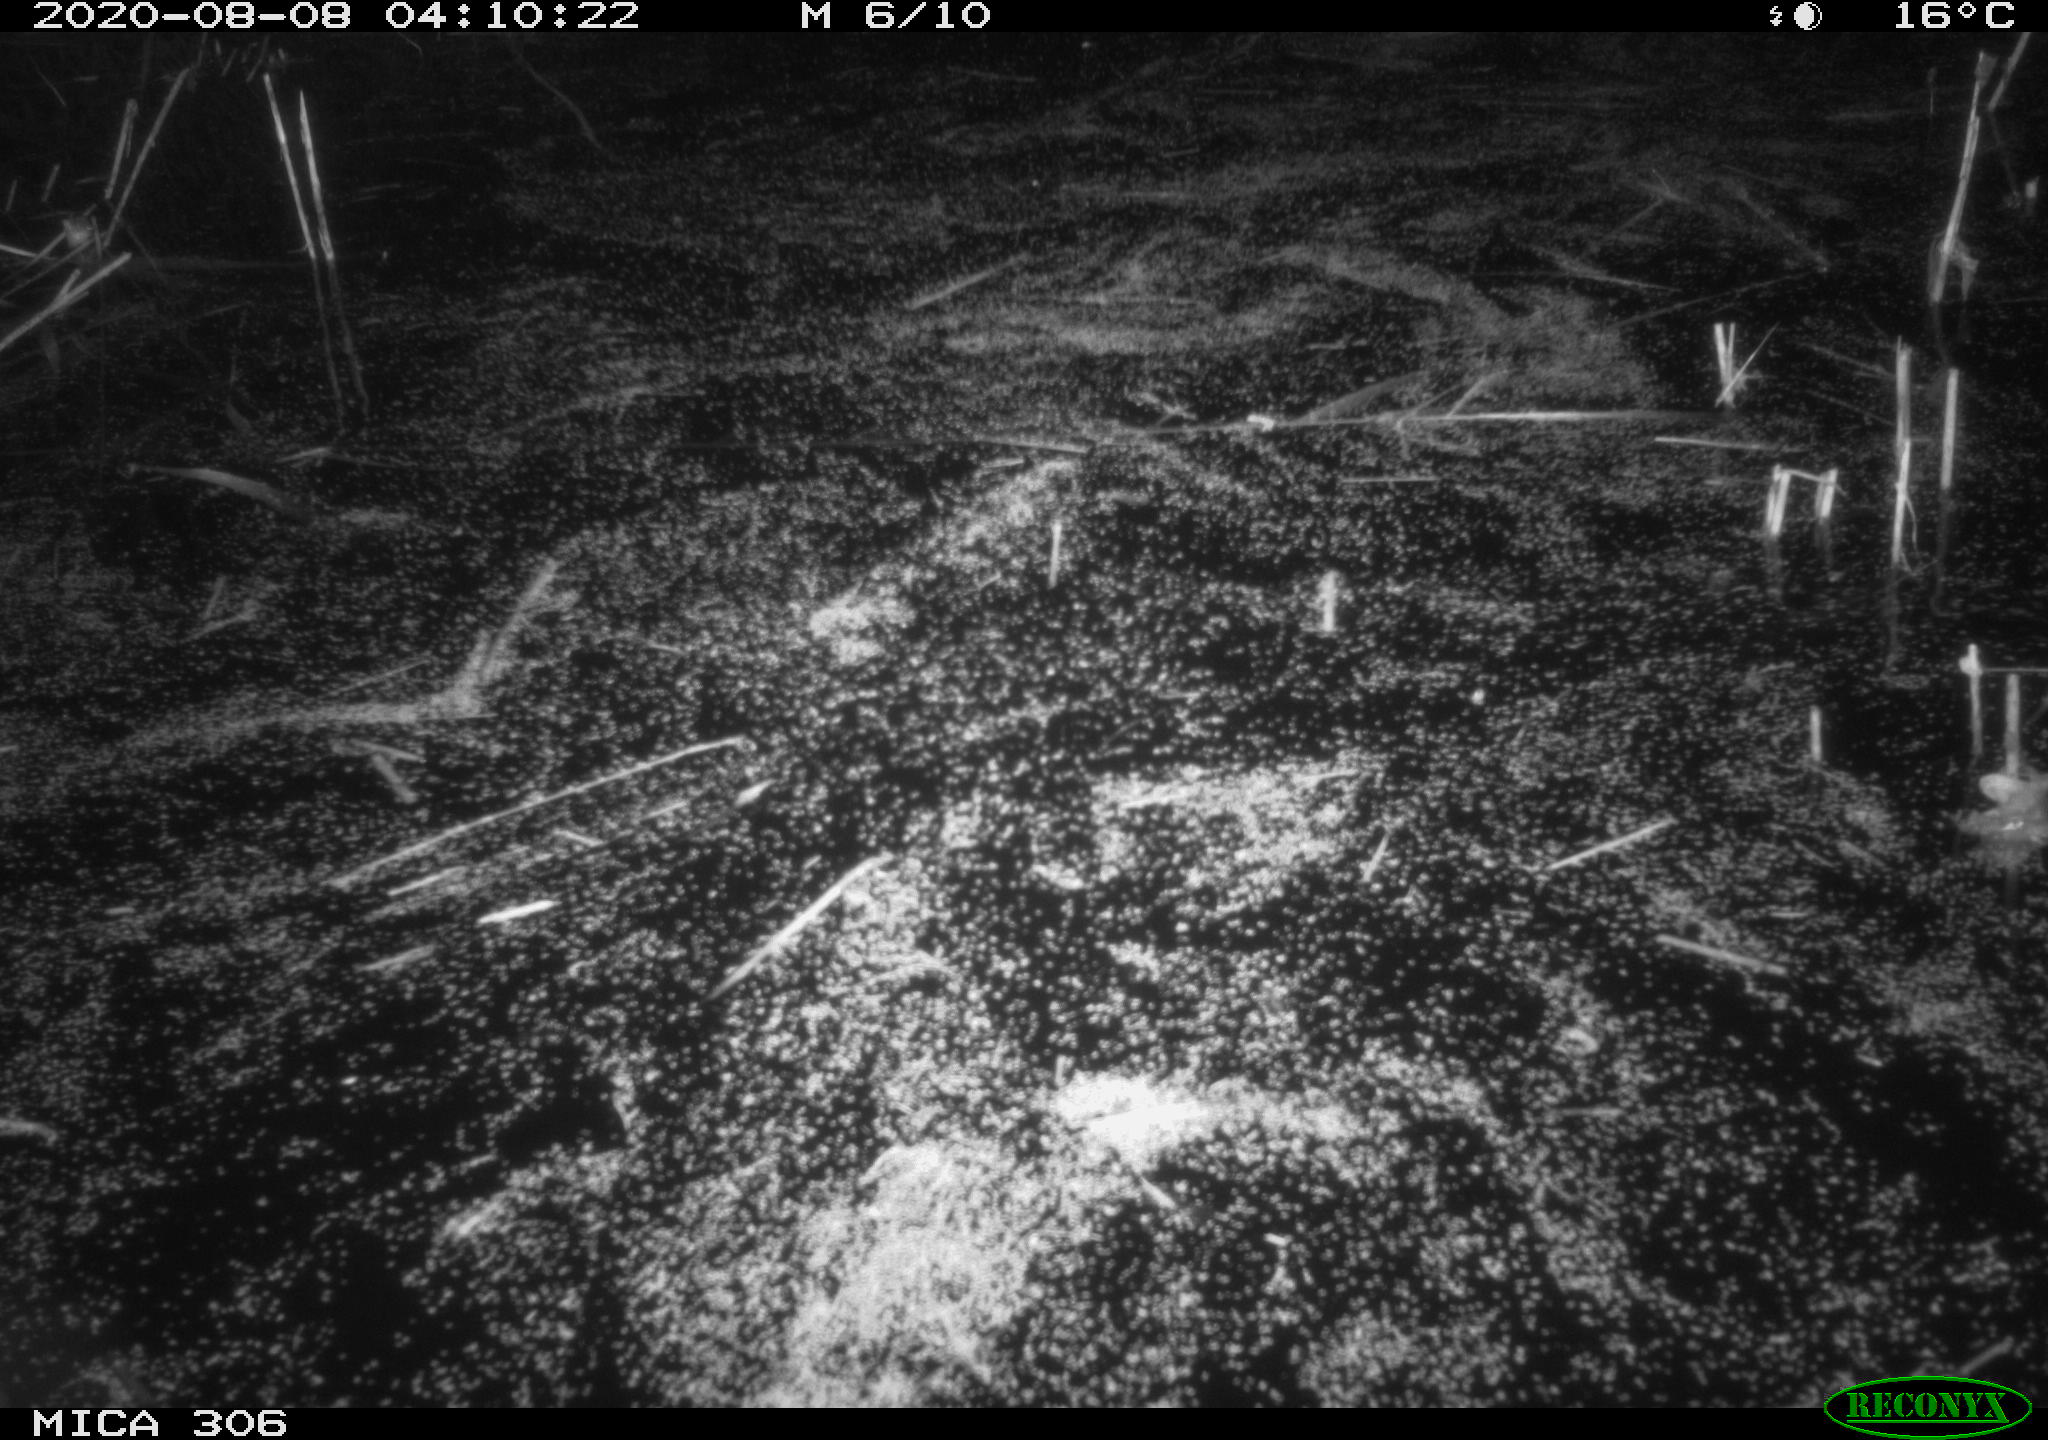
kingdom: Animalia
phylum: Chordata
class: Mammalia
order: Rodentia
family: Muridae
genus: Rattus
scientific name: Rattus norvegicus
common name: Brown rat
